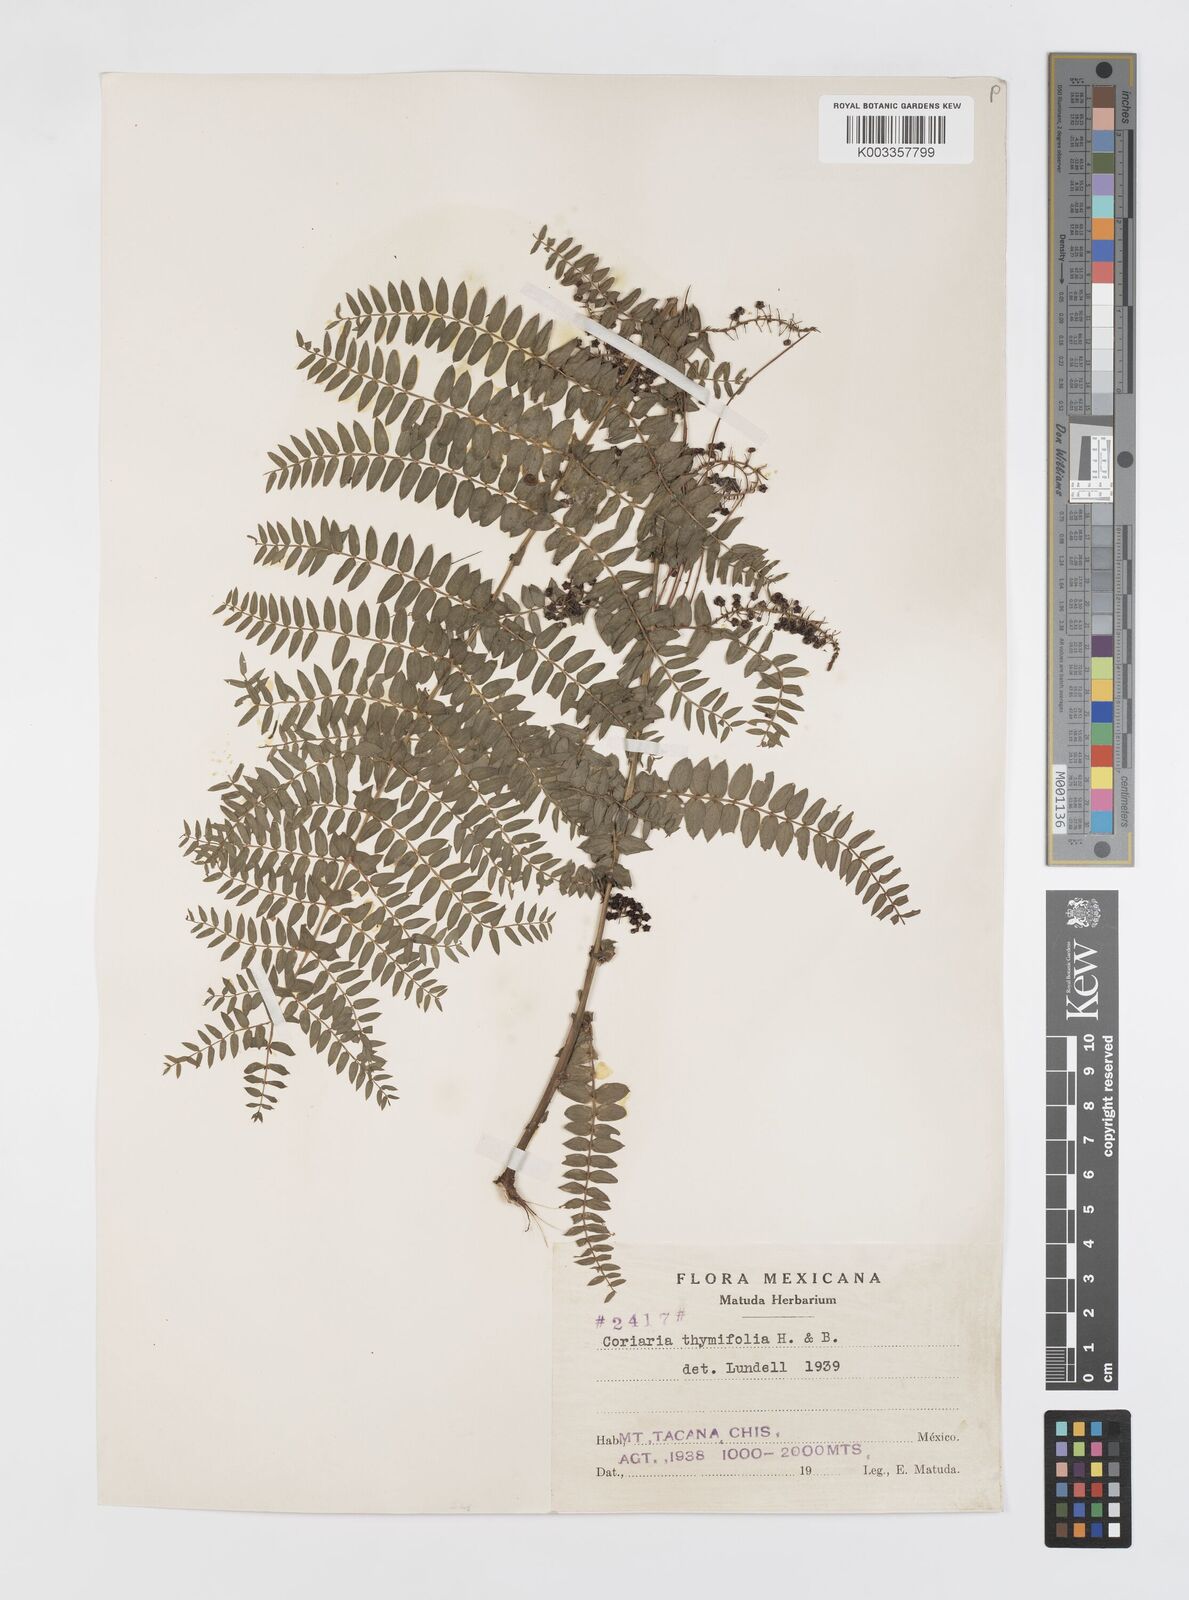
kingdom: Plantae
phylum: Tracheophyta
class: Magnoliopsida
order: Cucurbitales
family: Coriariaceae
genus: Coriaria
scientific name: Coriaria microphylla
